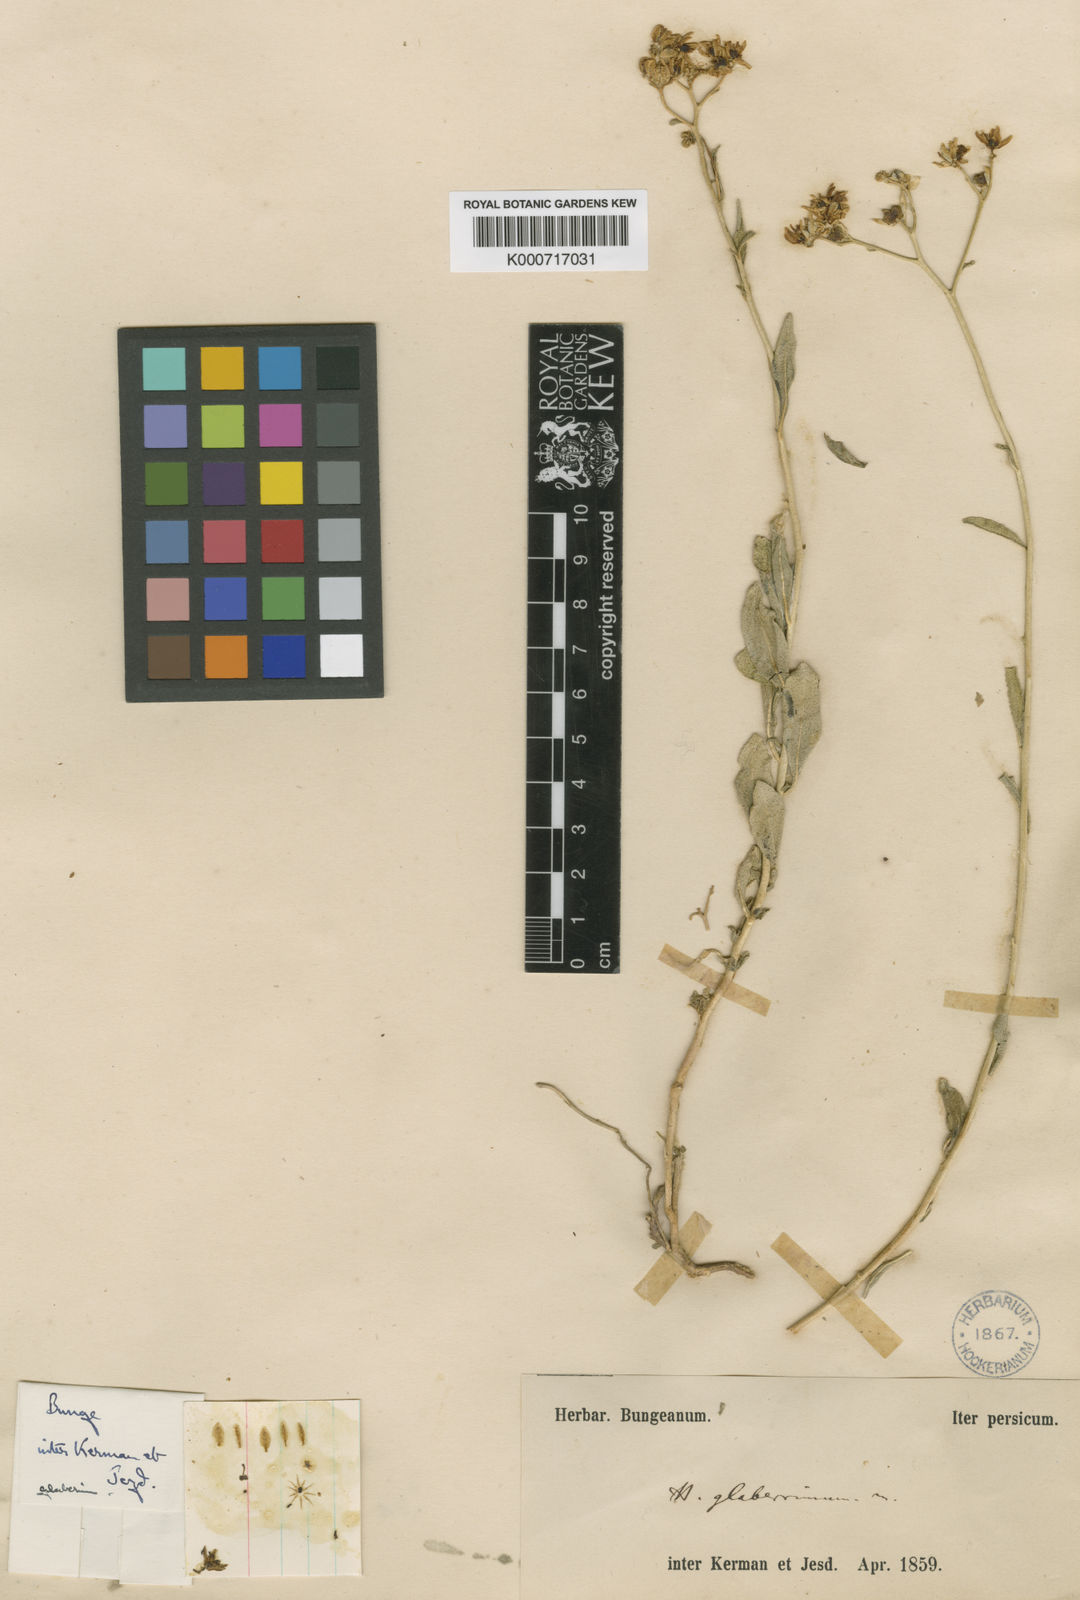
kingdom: Plantae
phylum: Tracheophyta
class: Magnoliopsida
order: Sapindales
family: Rutaceae
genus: Haplophyllum
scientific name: Haplophyllum glaberrimum
